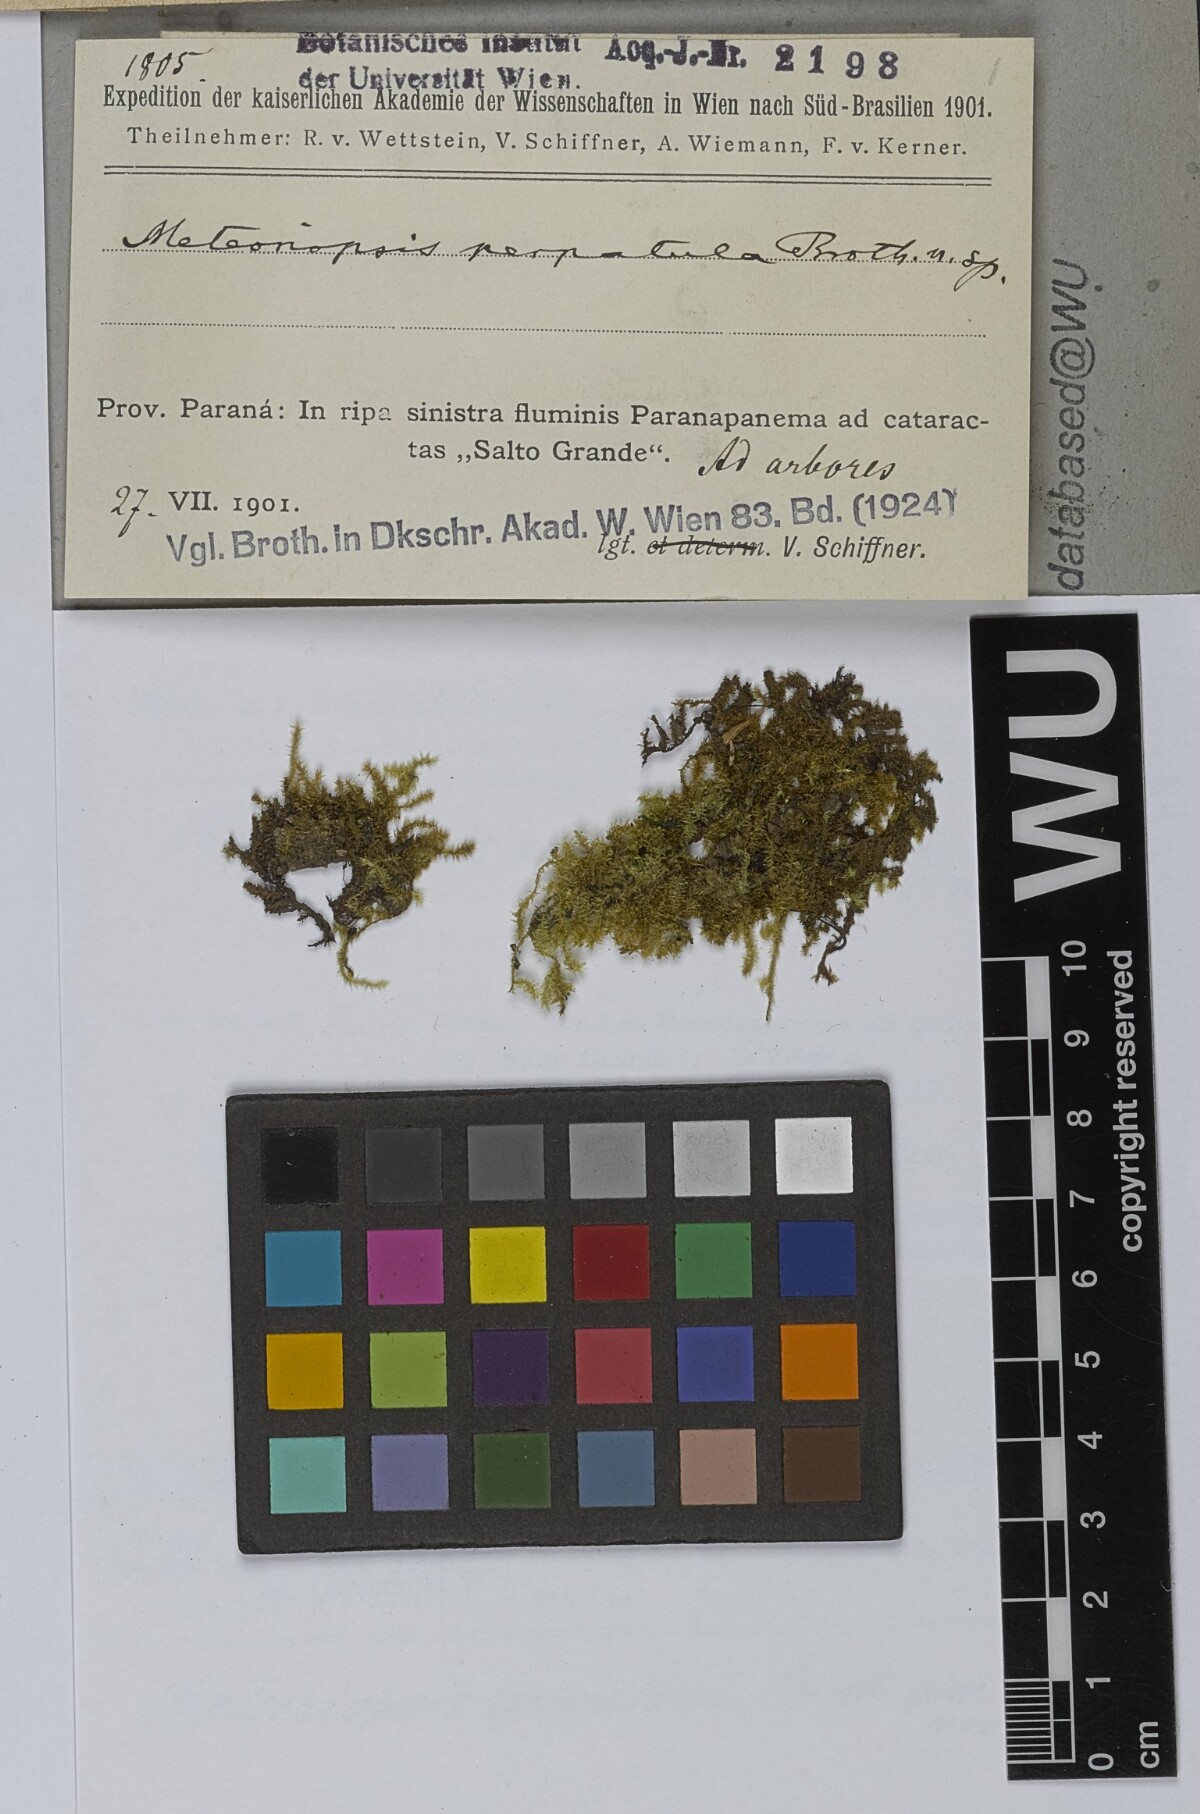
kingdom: Plantae
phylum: Bryophyta
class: Bryopsida
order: Hypnales
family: Brachytheciaceae
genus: Zelometeorium
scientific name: Zelometeorium patulum
